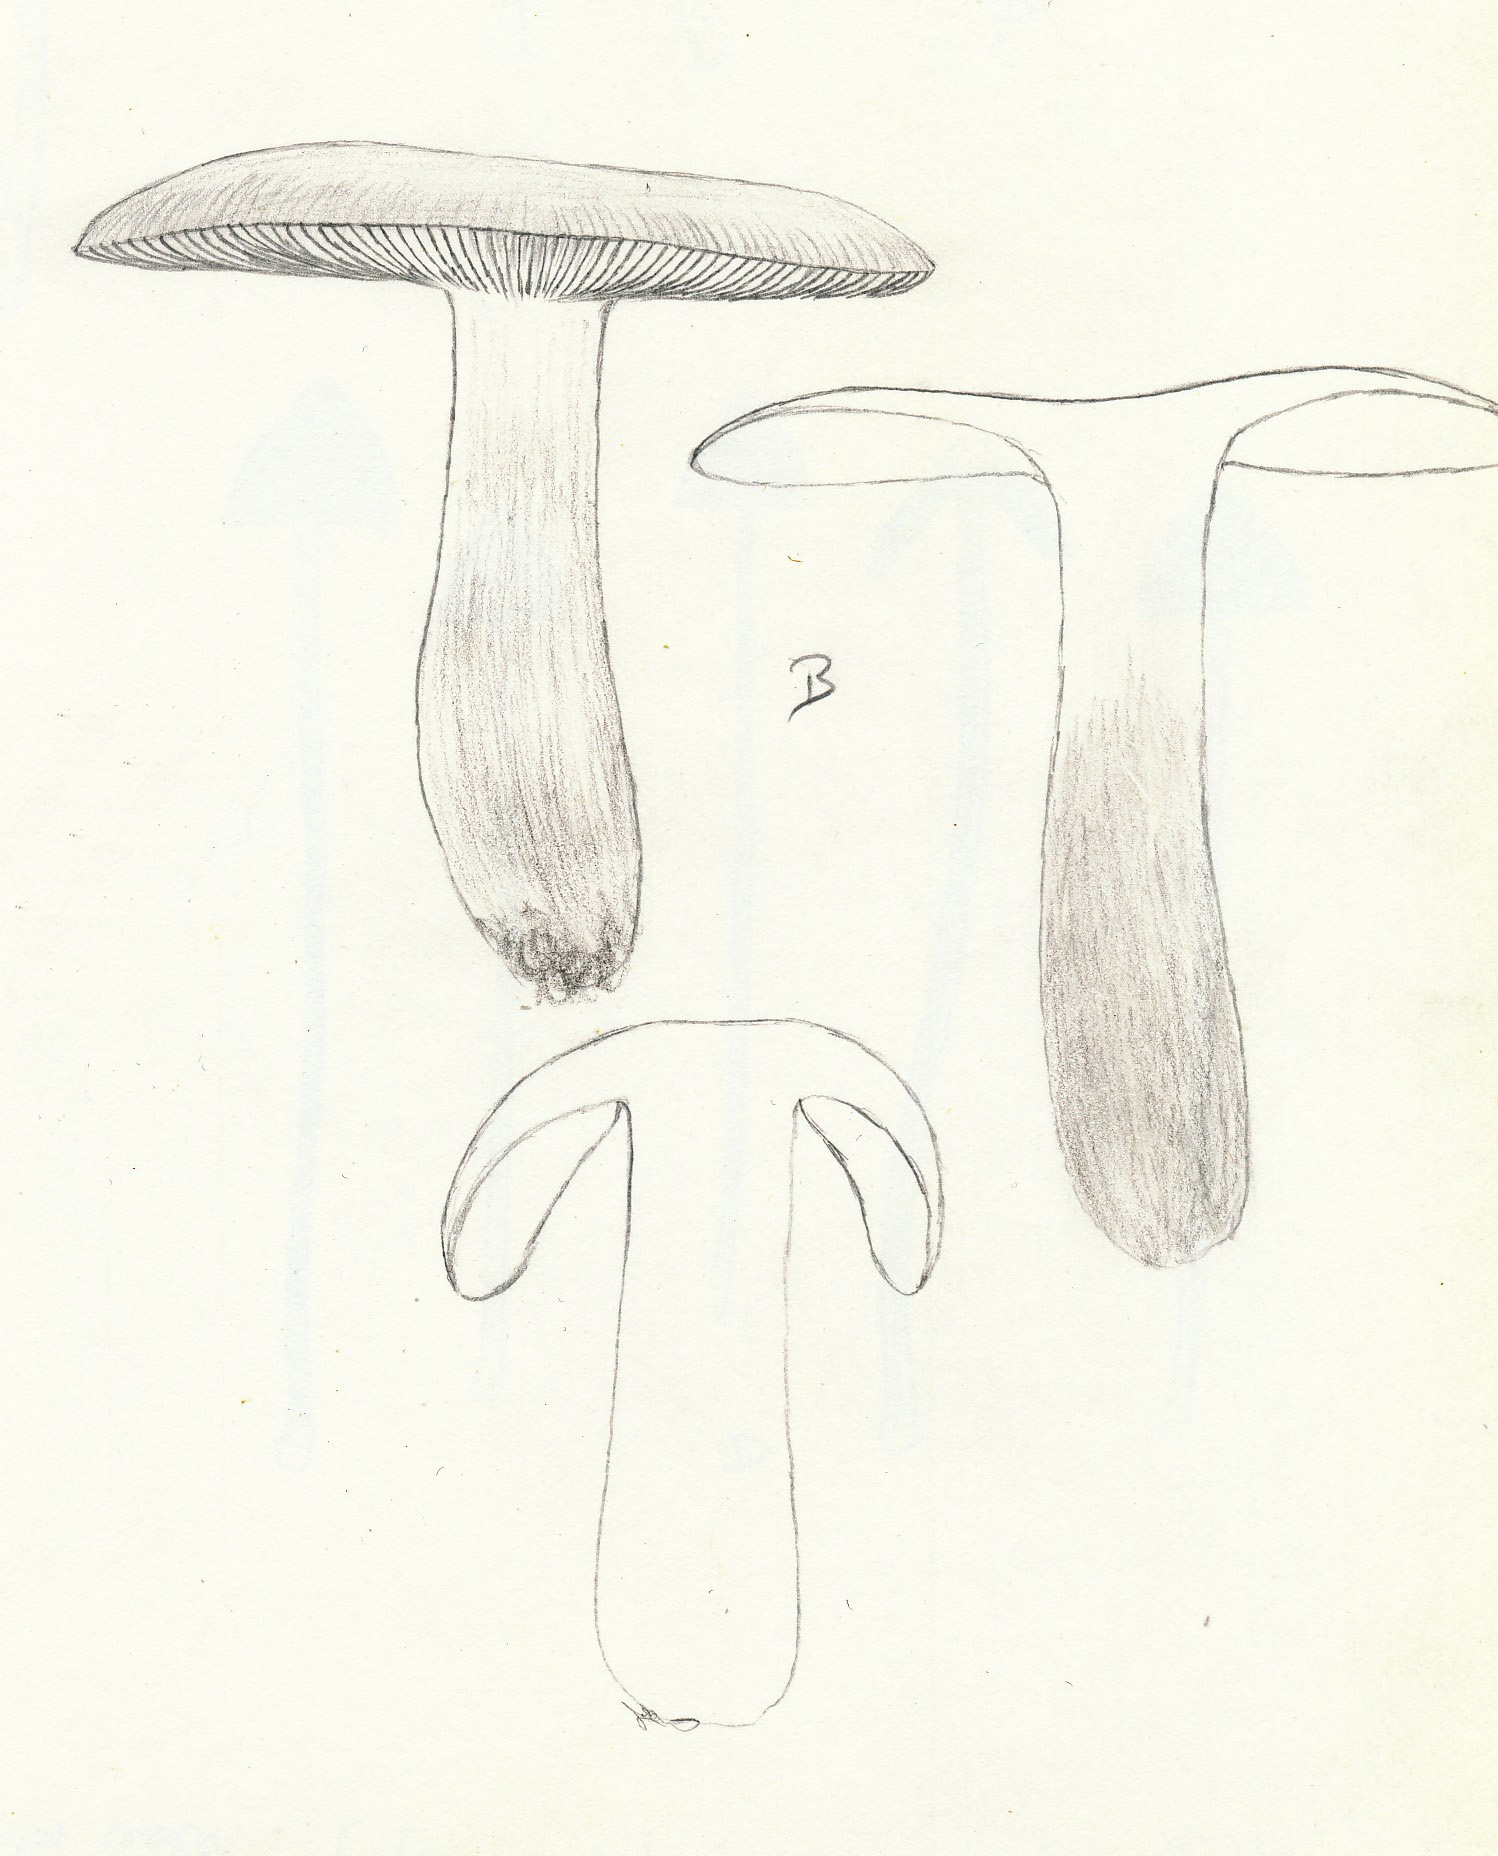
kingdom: Fungi
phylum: Basidiomycota
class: Agaricomycetes
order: Russulales
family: Russulaceae
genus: Russula
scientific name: Russula claroflava
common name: birke-skørhat
